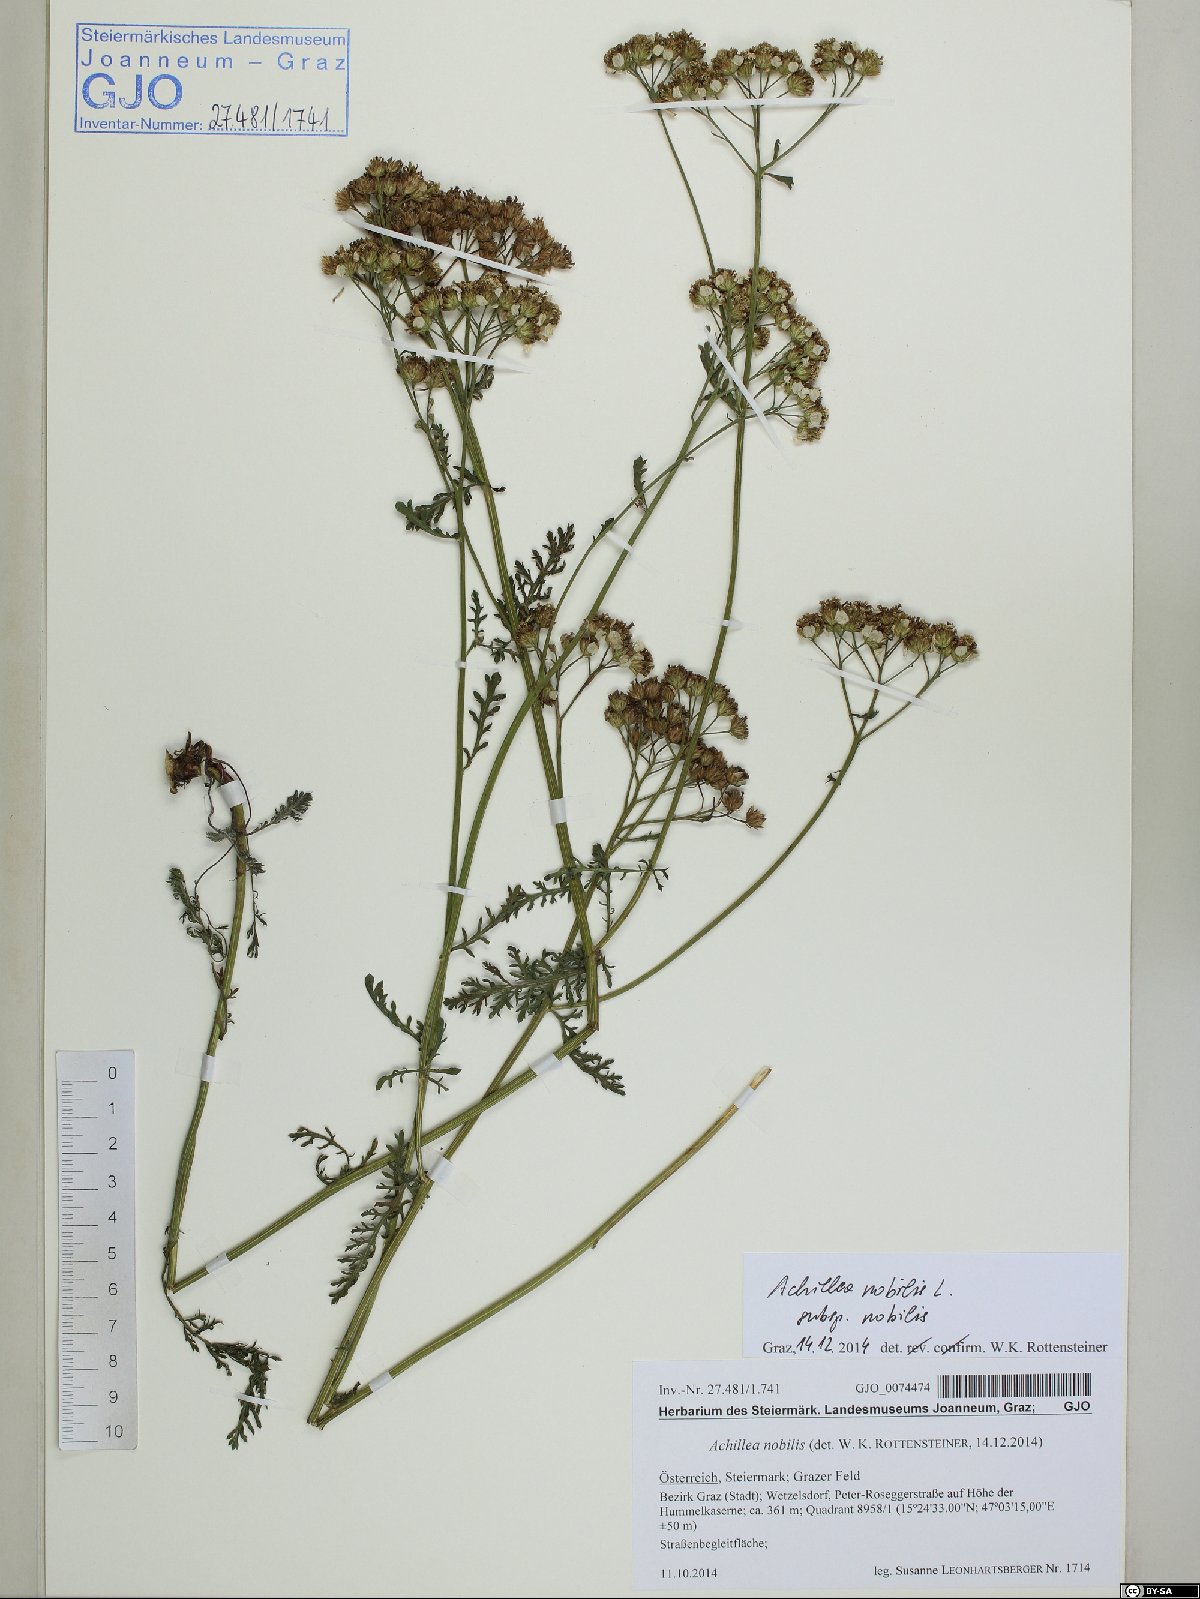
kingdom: Plantae
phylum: Tracheophyta
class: Magnoliopsida
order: Asterales
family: Asteraceae
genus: Achillea
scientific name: Achillea nobilis
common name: Noble yarrow
